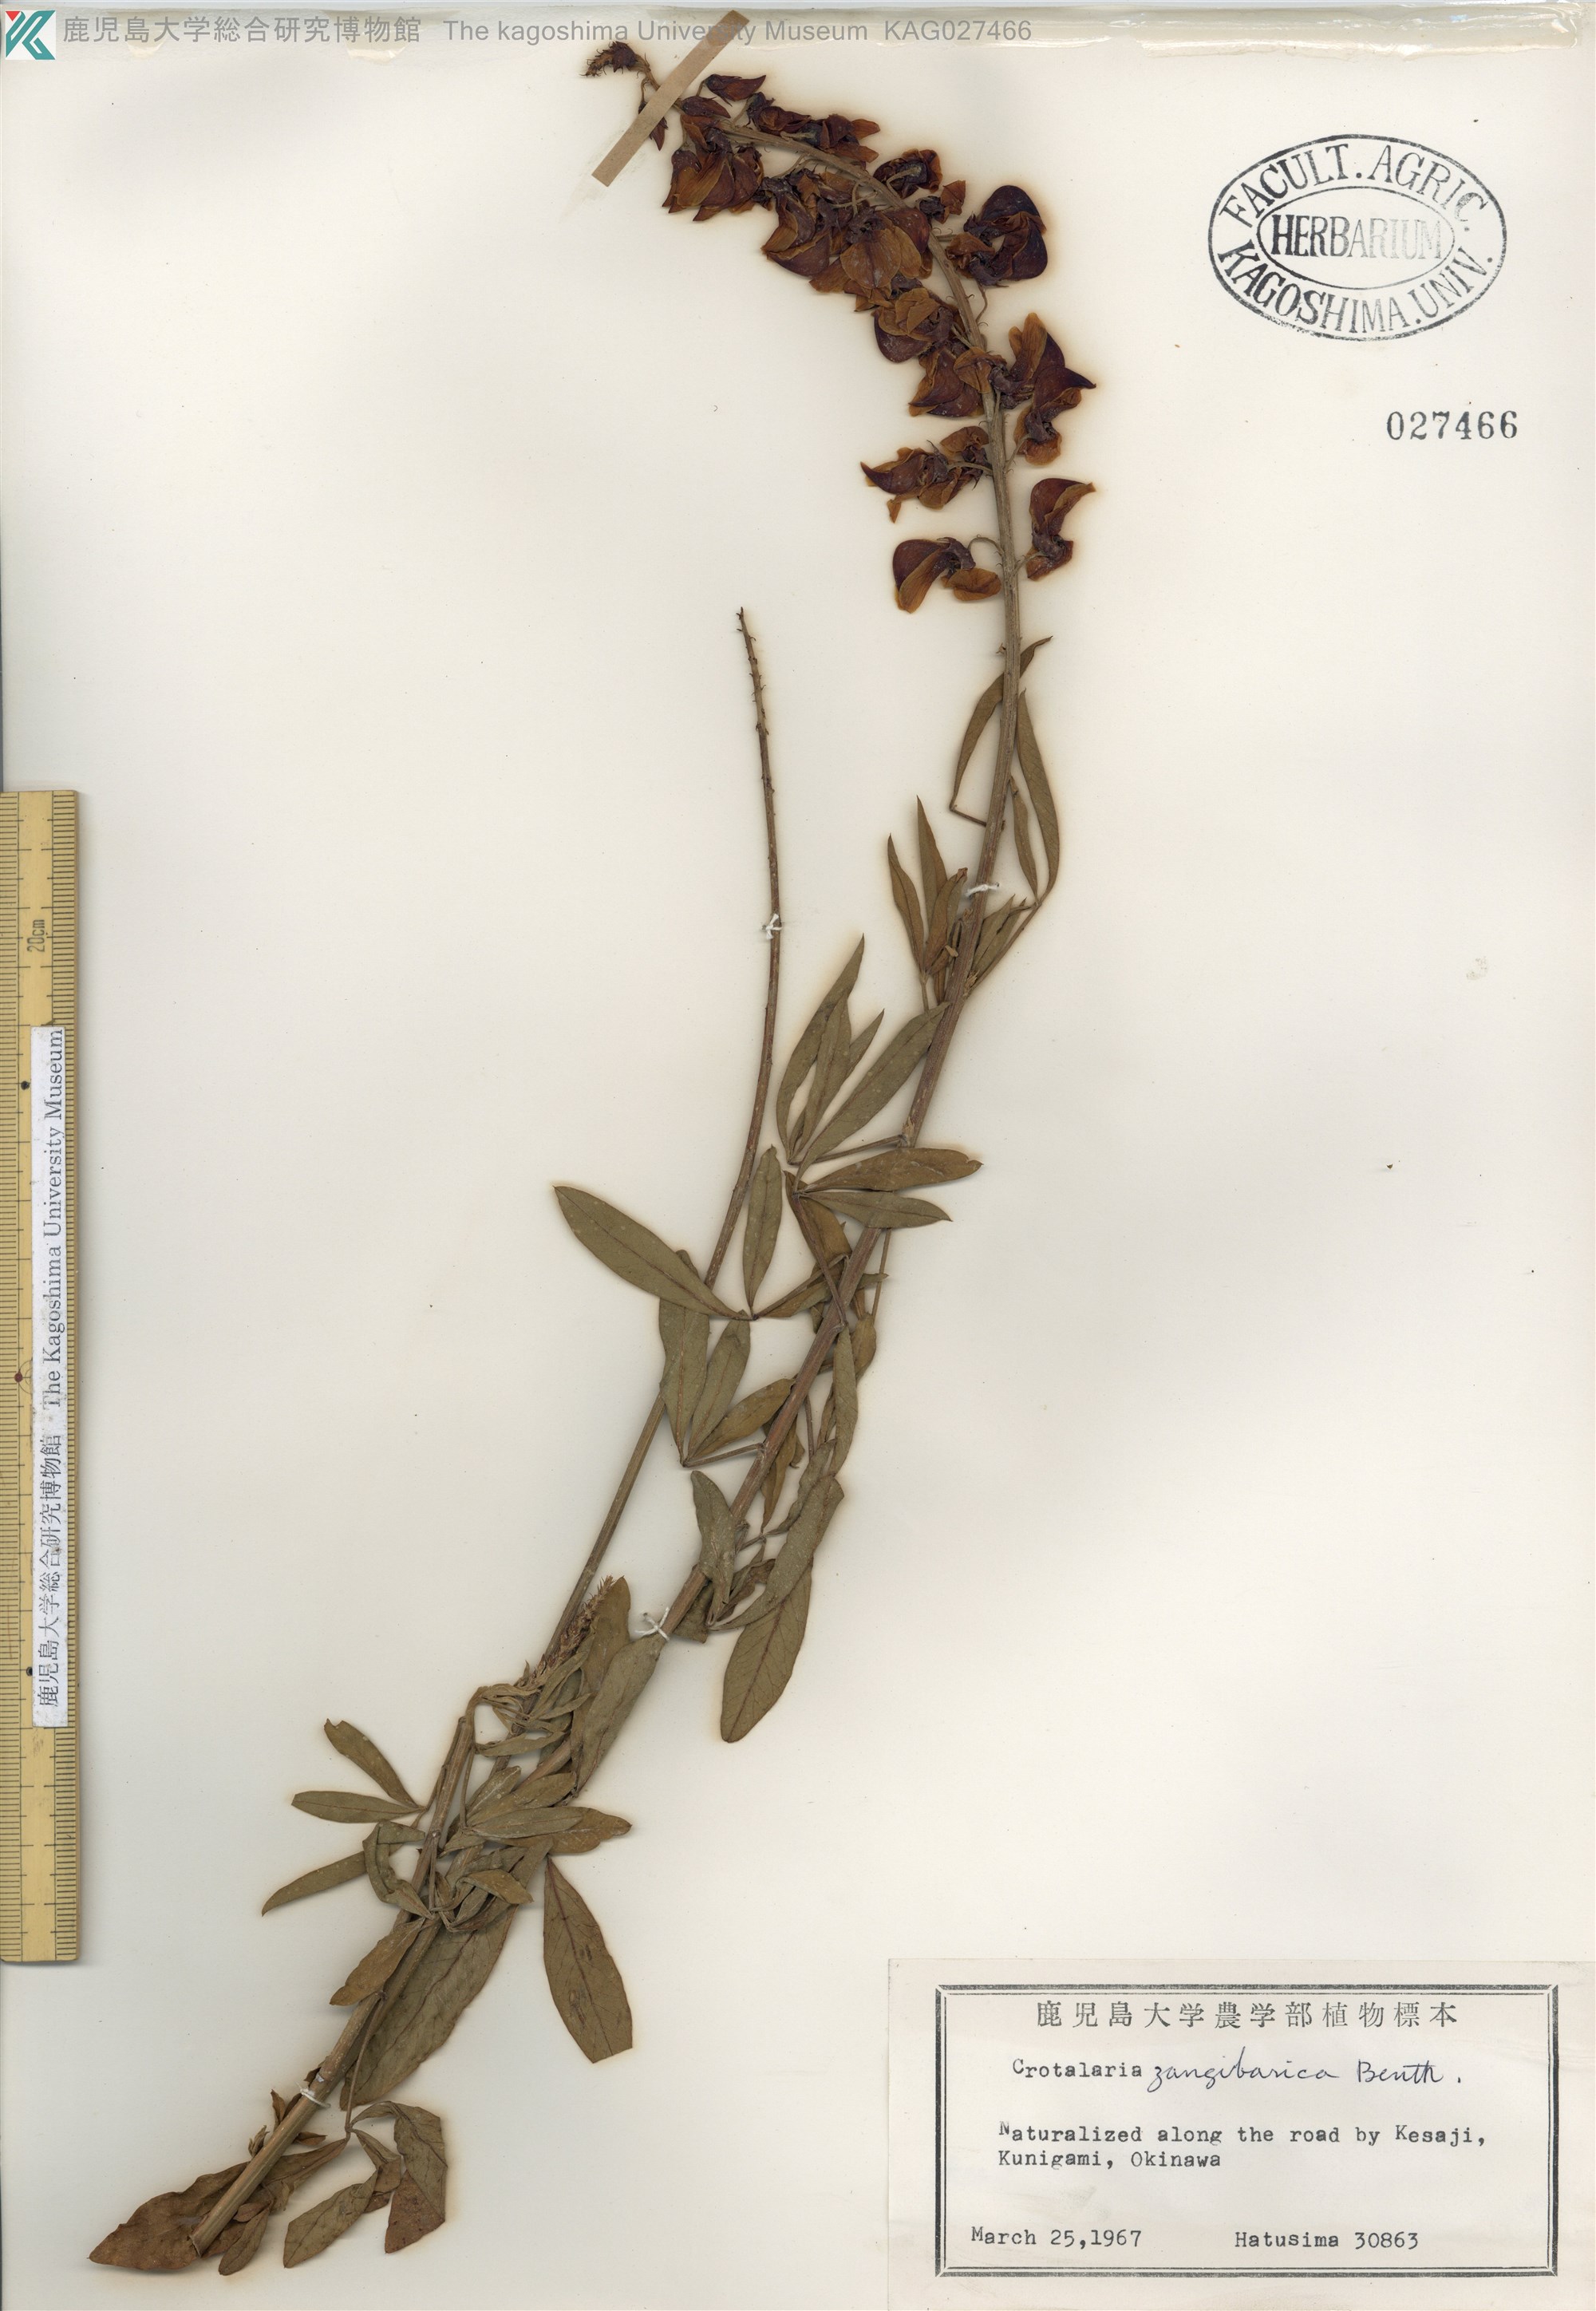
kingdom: Plantae
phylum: Tracheophyta
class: Magnoliopsida
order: Fabales
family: Fabaceae
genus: Crotalaria
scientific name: Crotalaria trichotoma
